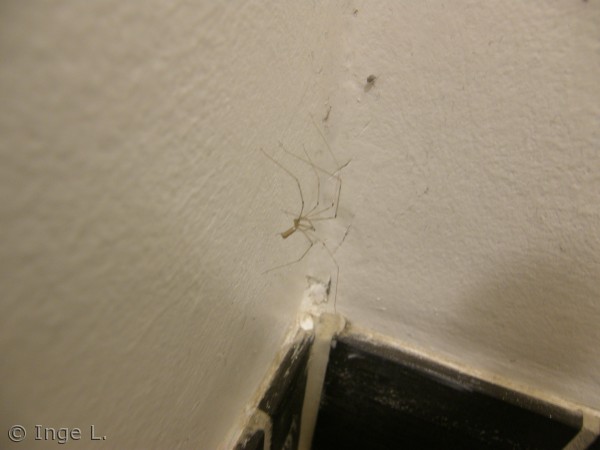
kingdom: Animalia
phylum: Arthropoda
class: Arachnida
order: Araneae
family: Pholcidae
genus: Pholcus
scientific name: Pholcus phalangioides
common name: Mejeredderkop
